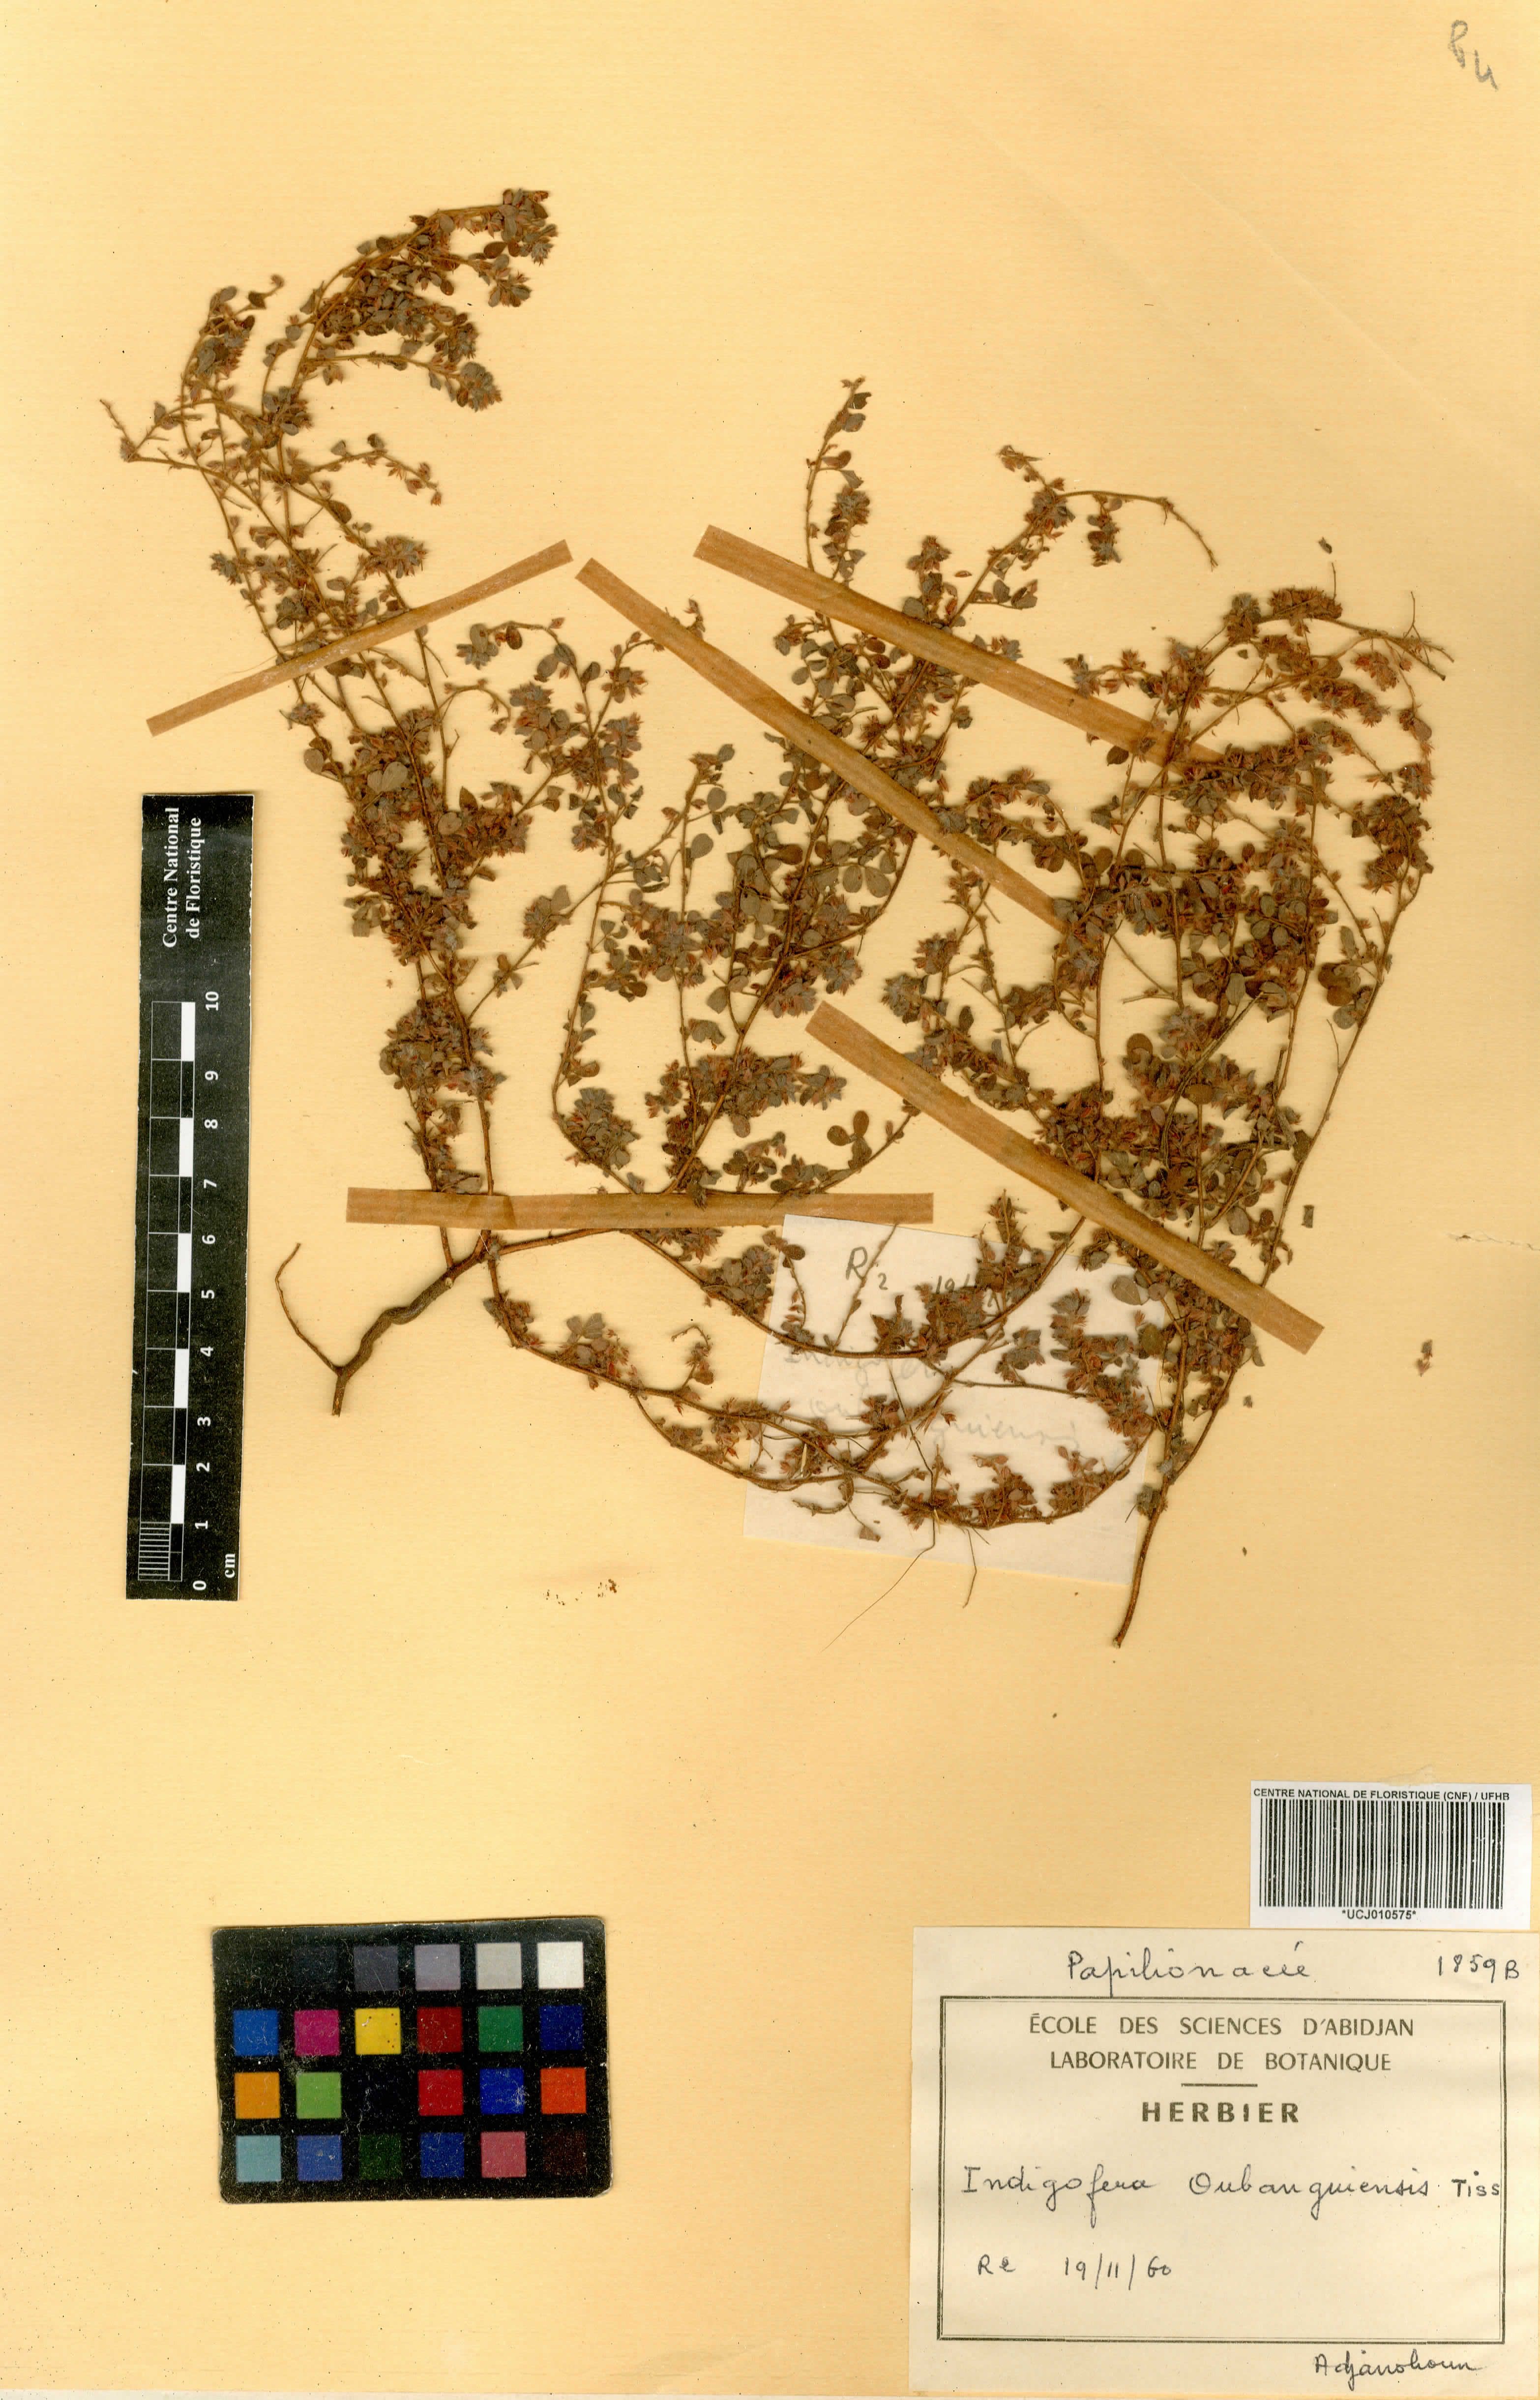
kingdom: Plantae
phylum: Tracheophyta
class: Magnoliopsida
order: Fabales
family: Fabaceae
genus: Indigofera
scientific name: Indigofera oubanguiensis
